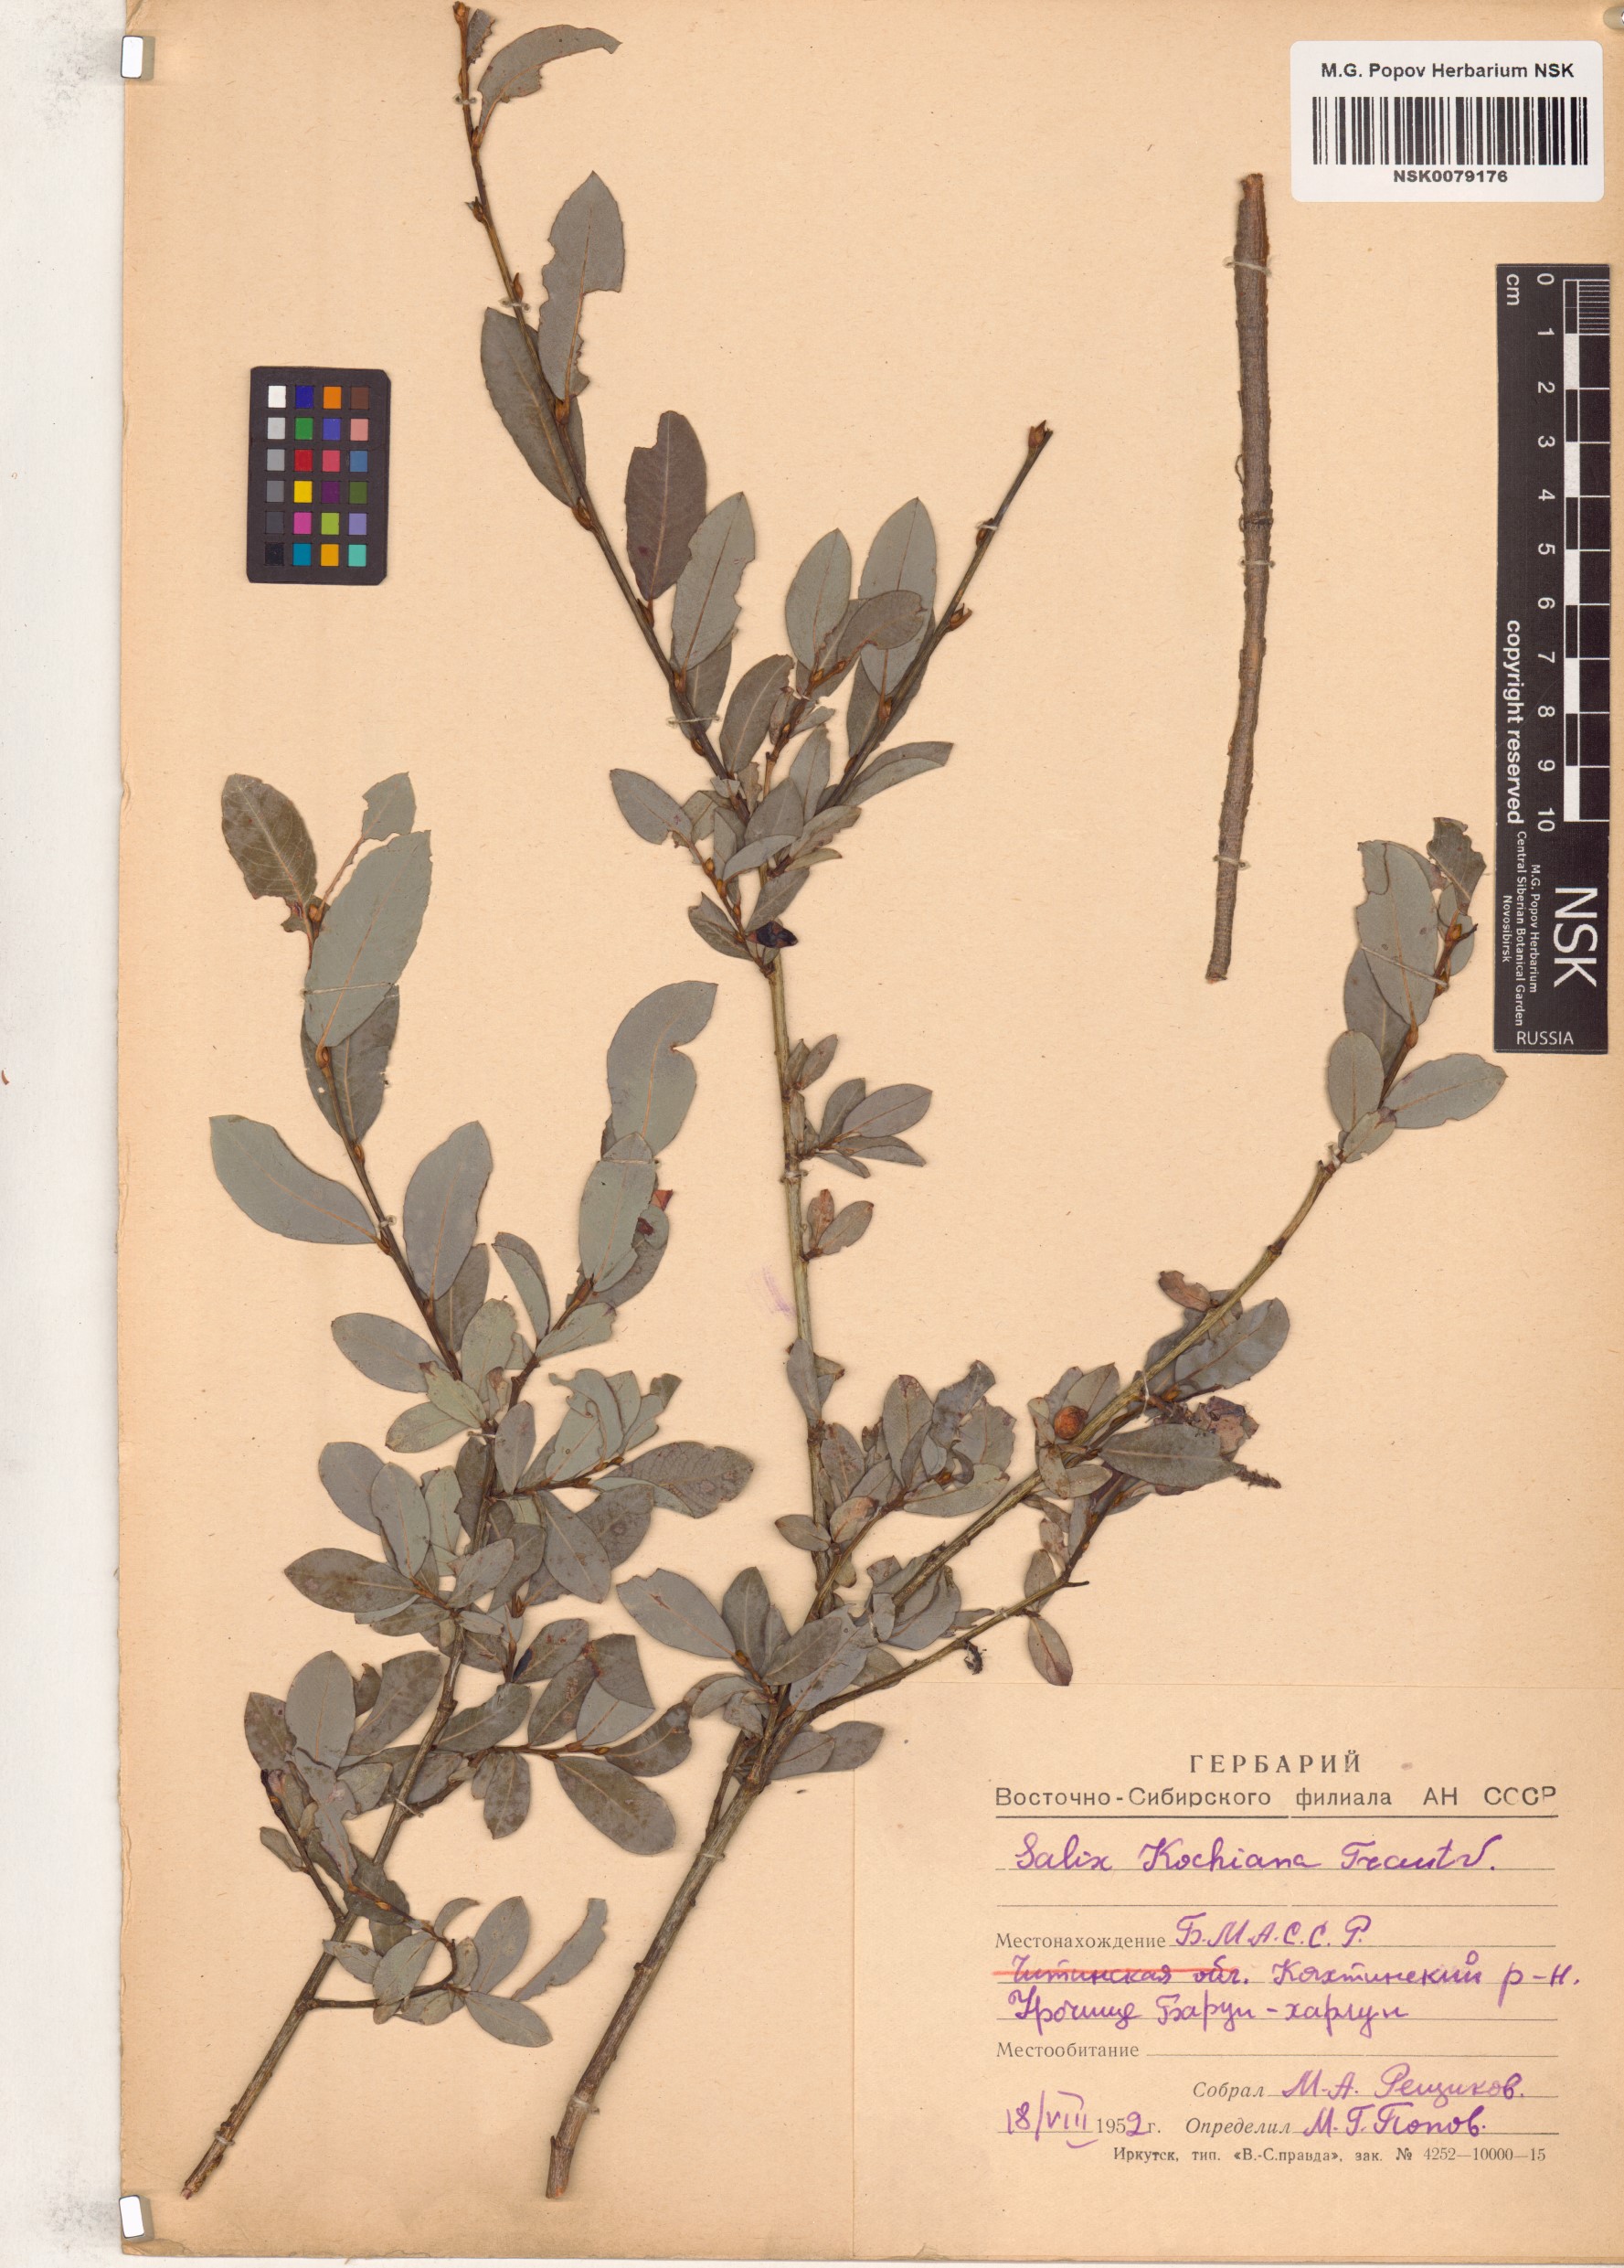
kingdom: Plantae
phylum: Tracheophyta
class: Magnoliopsida
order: Malpighiales
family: Salicaceae
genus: Salix
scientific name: Salix kochiana
